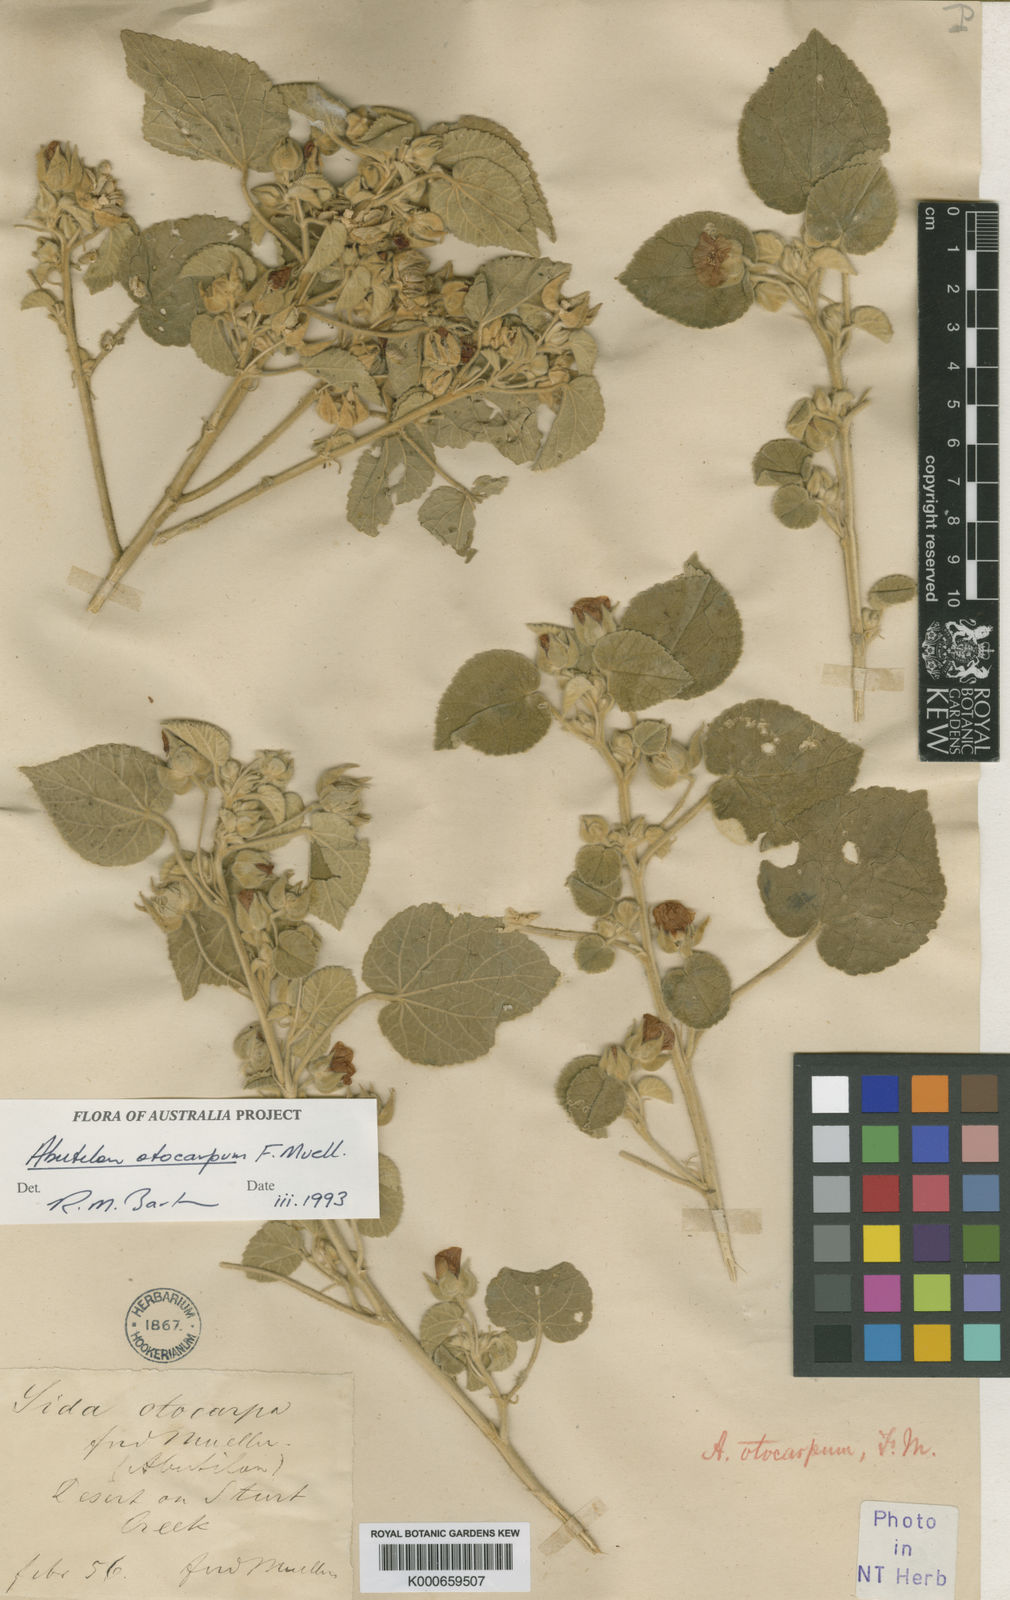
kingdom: Plantae
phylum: Tracheophyta
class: Magnoliopsida
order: Malvales
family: Malvaceae
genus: Abutilon
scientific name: Abutilon otocarpum
